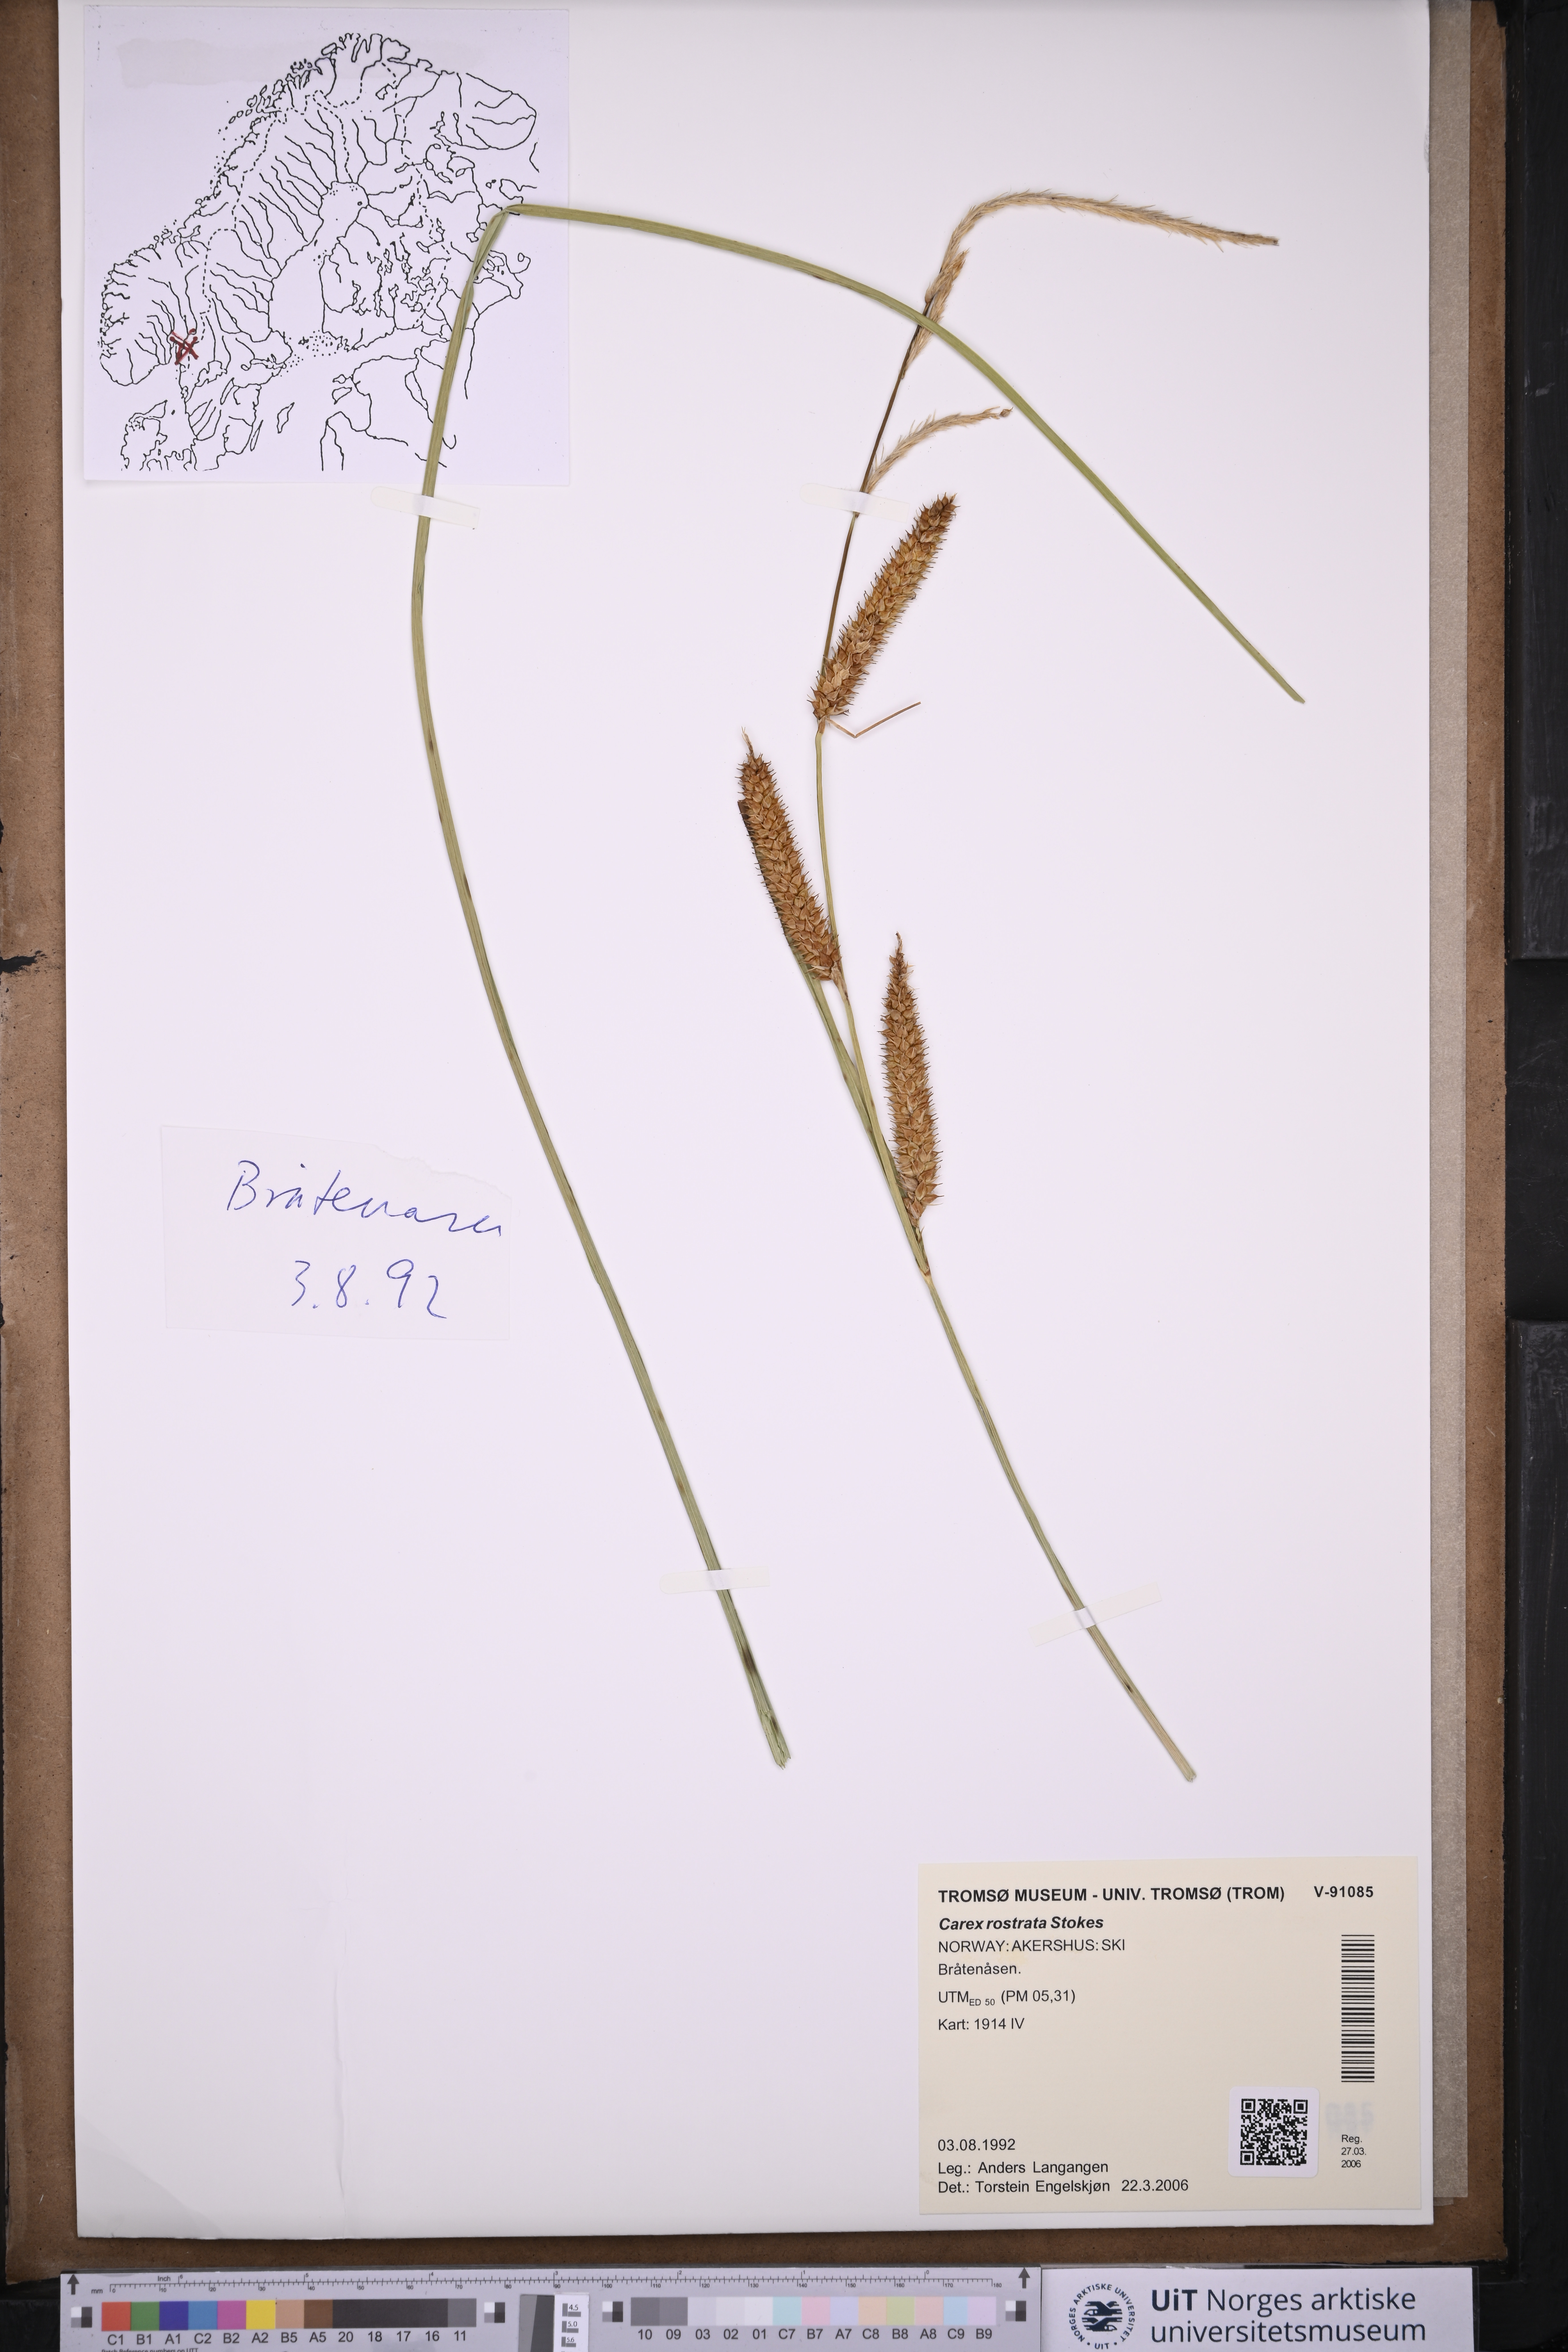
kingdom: Plantae
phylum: Tracheophyta
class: Liliopsida
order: Poales
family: Cyperaceae
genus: Carex
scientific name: Carex rostrata
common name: Bottle sedge
